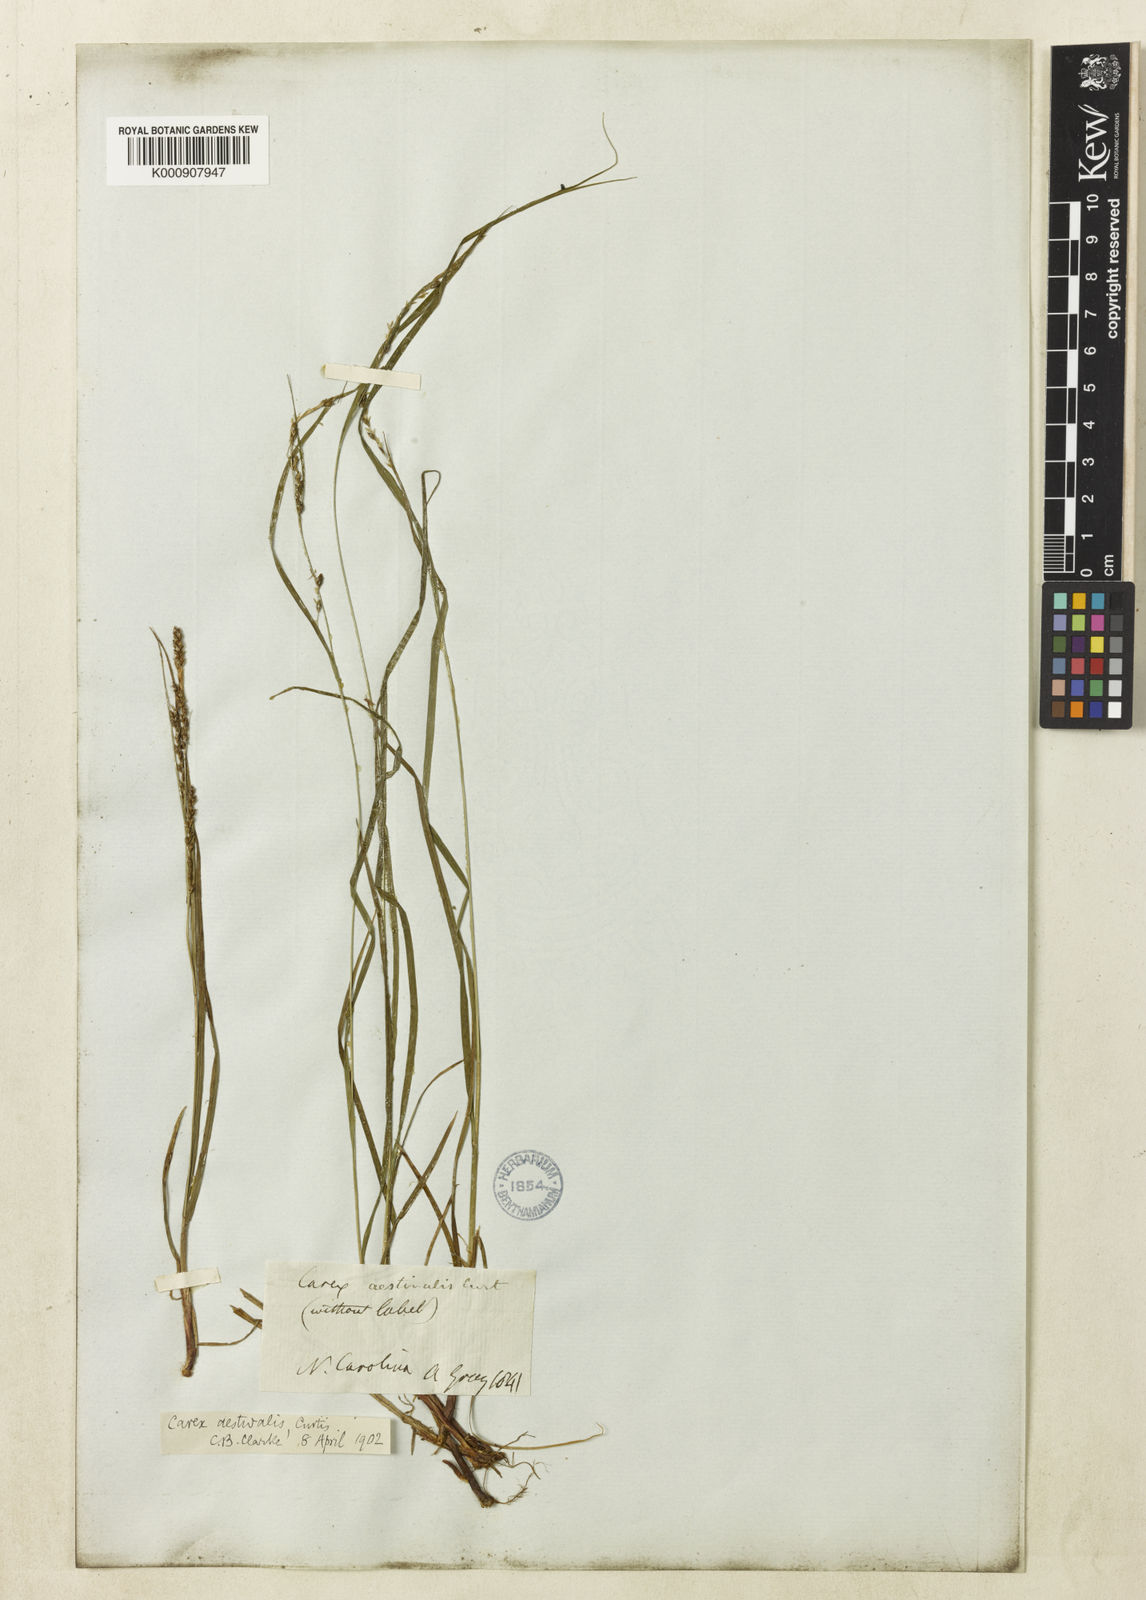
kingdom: Plantae
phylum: Tracheophyta
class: Liliopsida
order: Poales
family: Cyperaceae
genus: Carex
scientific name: Carex aestivalis
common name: Summer sedge
